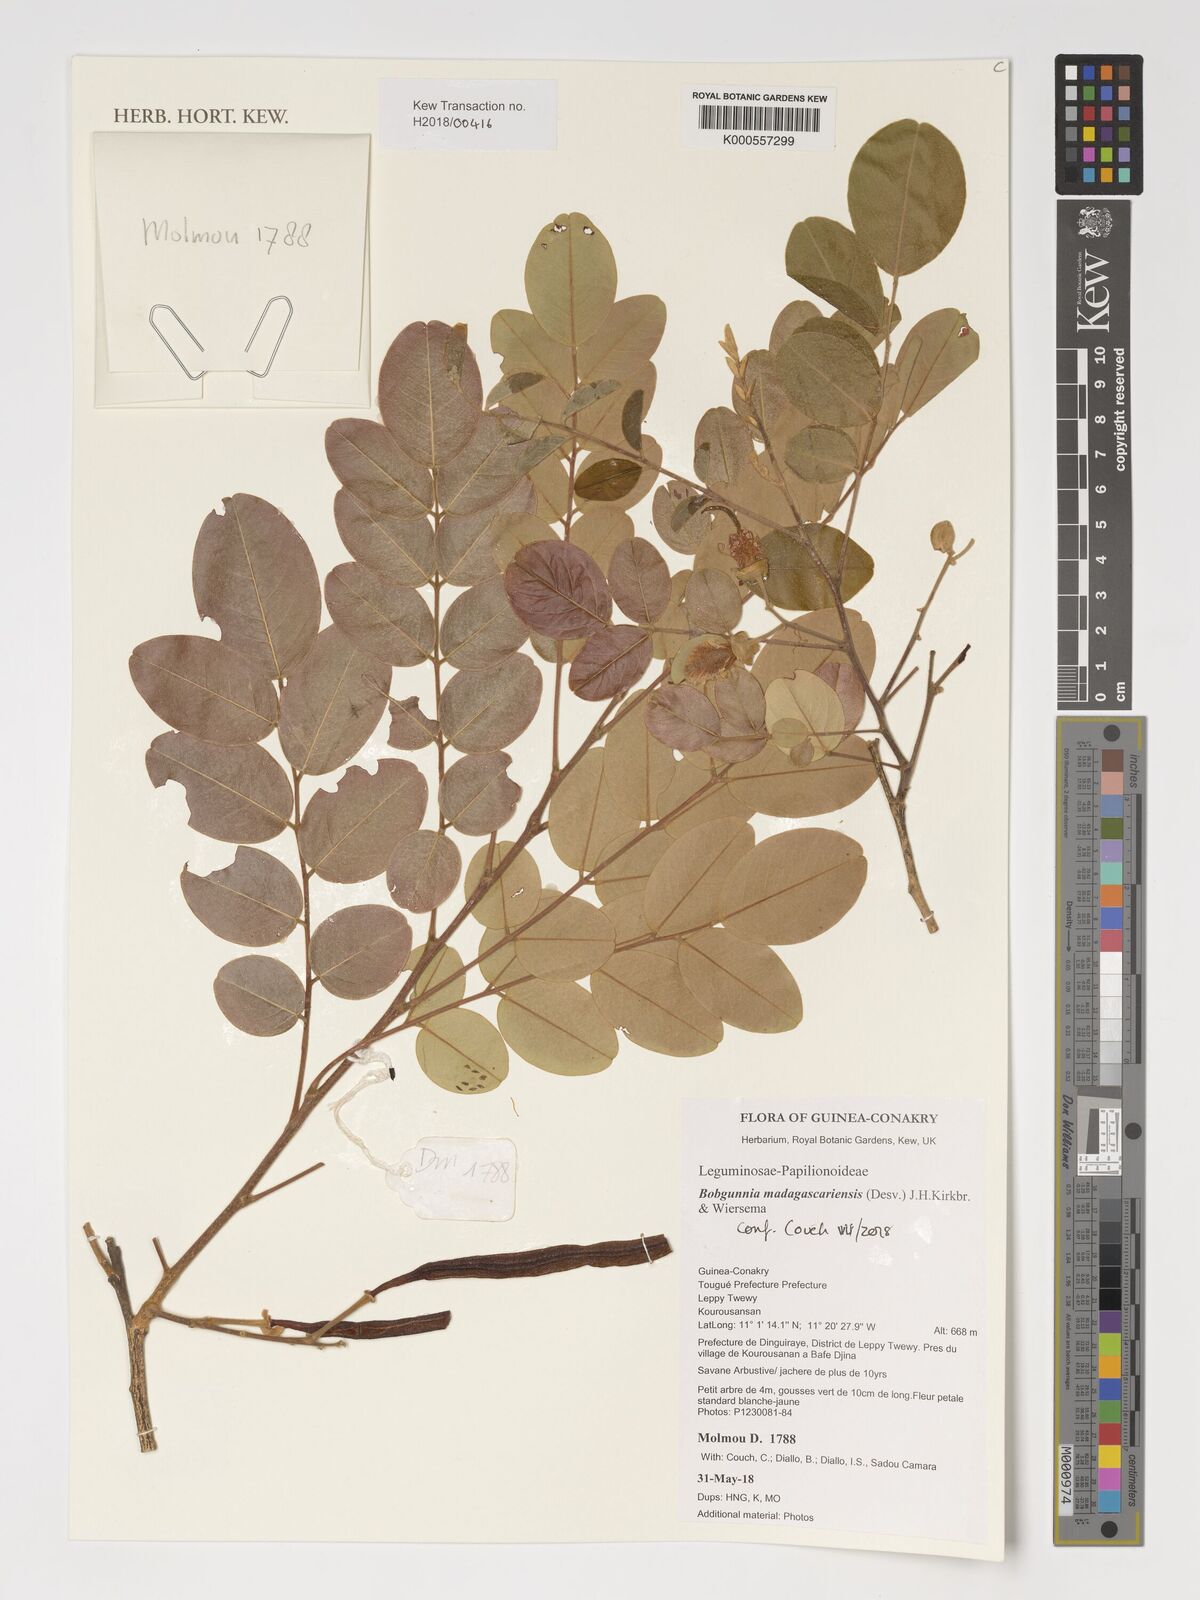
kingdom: Plantae
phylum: Tracheophyta
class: Magnoliopsida
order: Fabales
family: Fabaceae
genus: Bobgunnia
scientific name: Bobgunnia madagascariensis
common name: Snake bean plant
